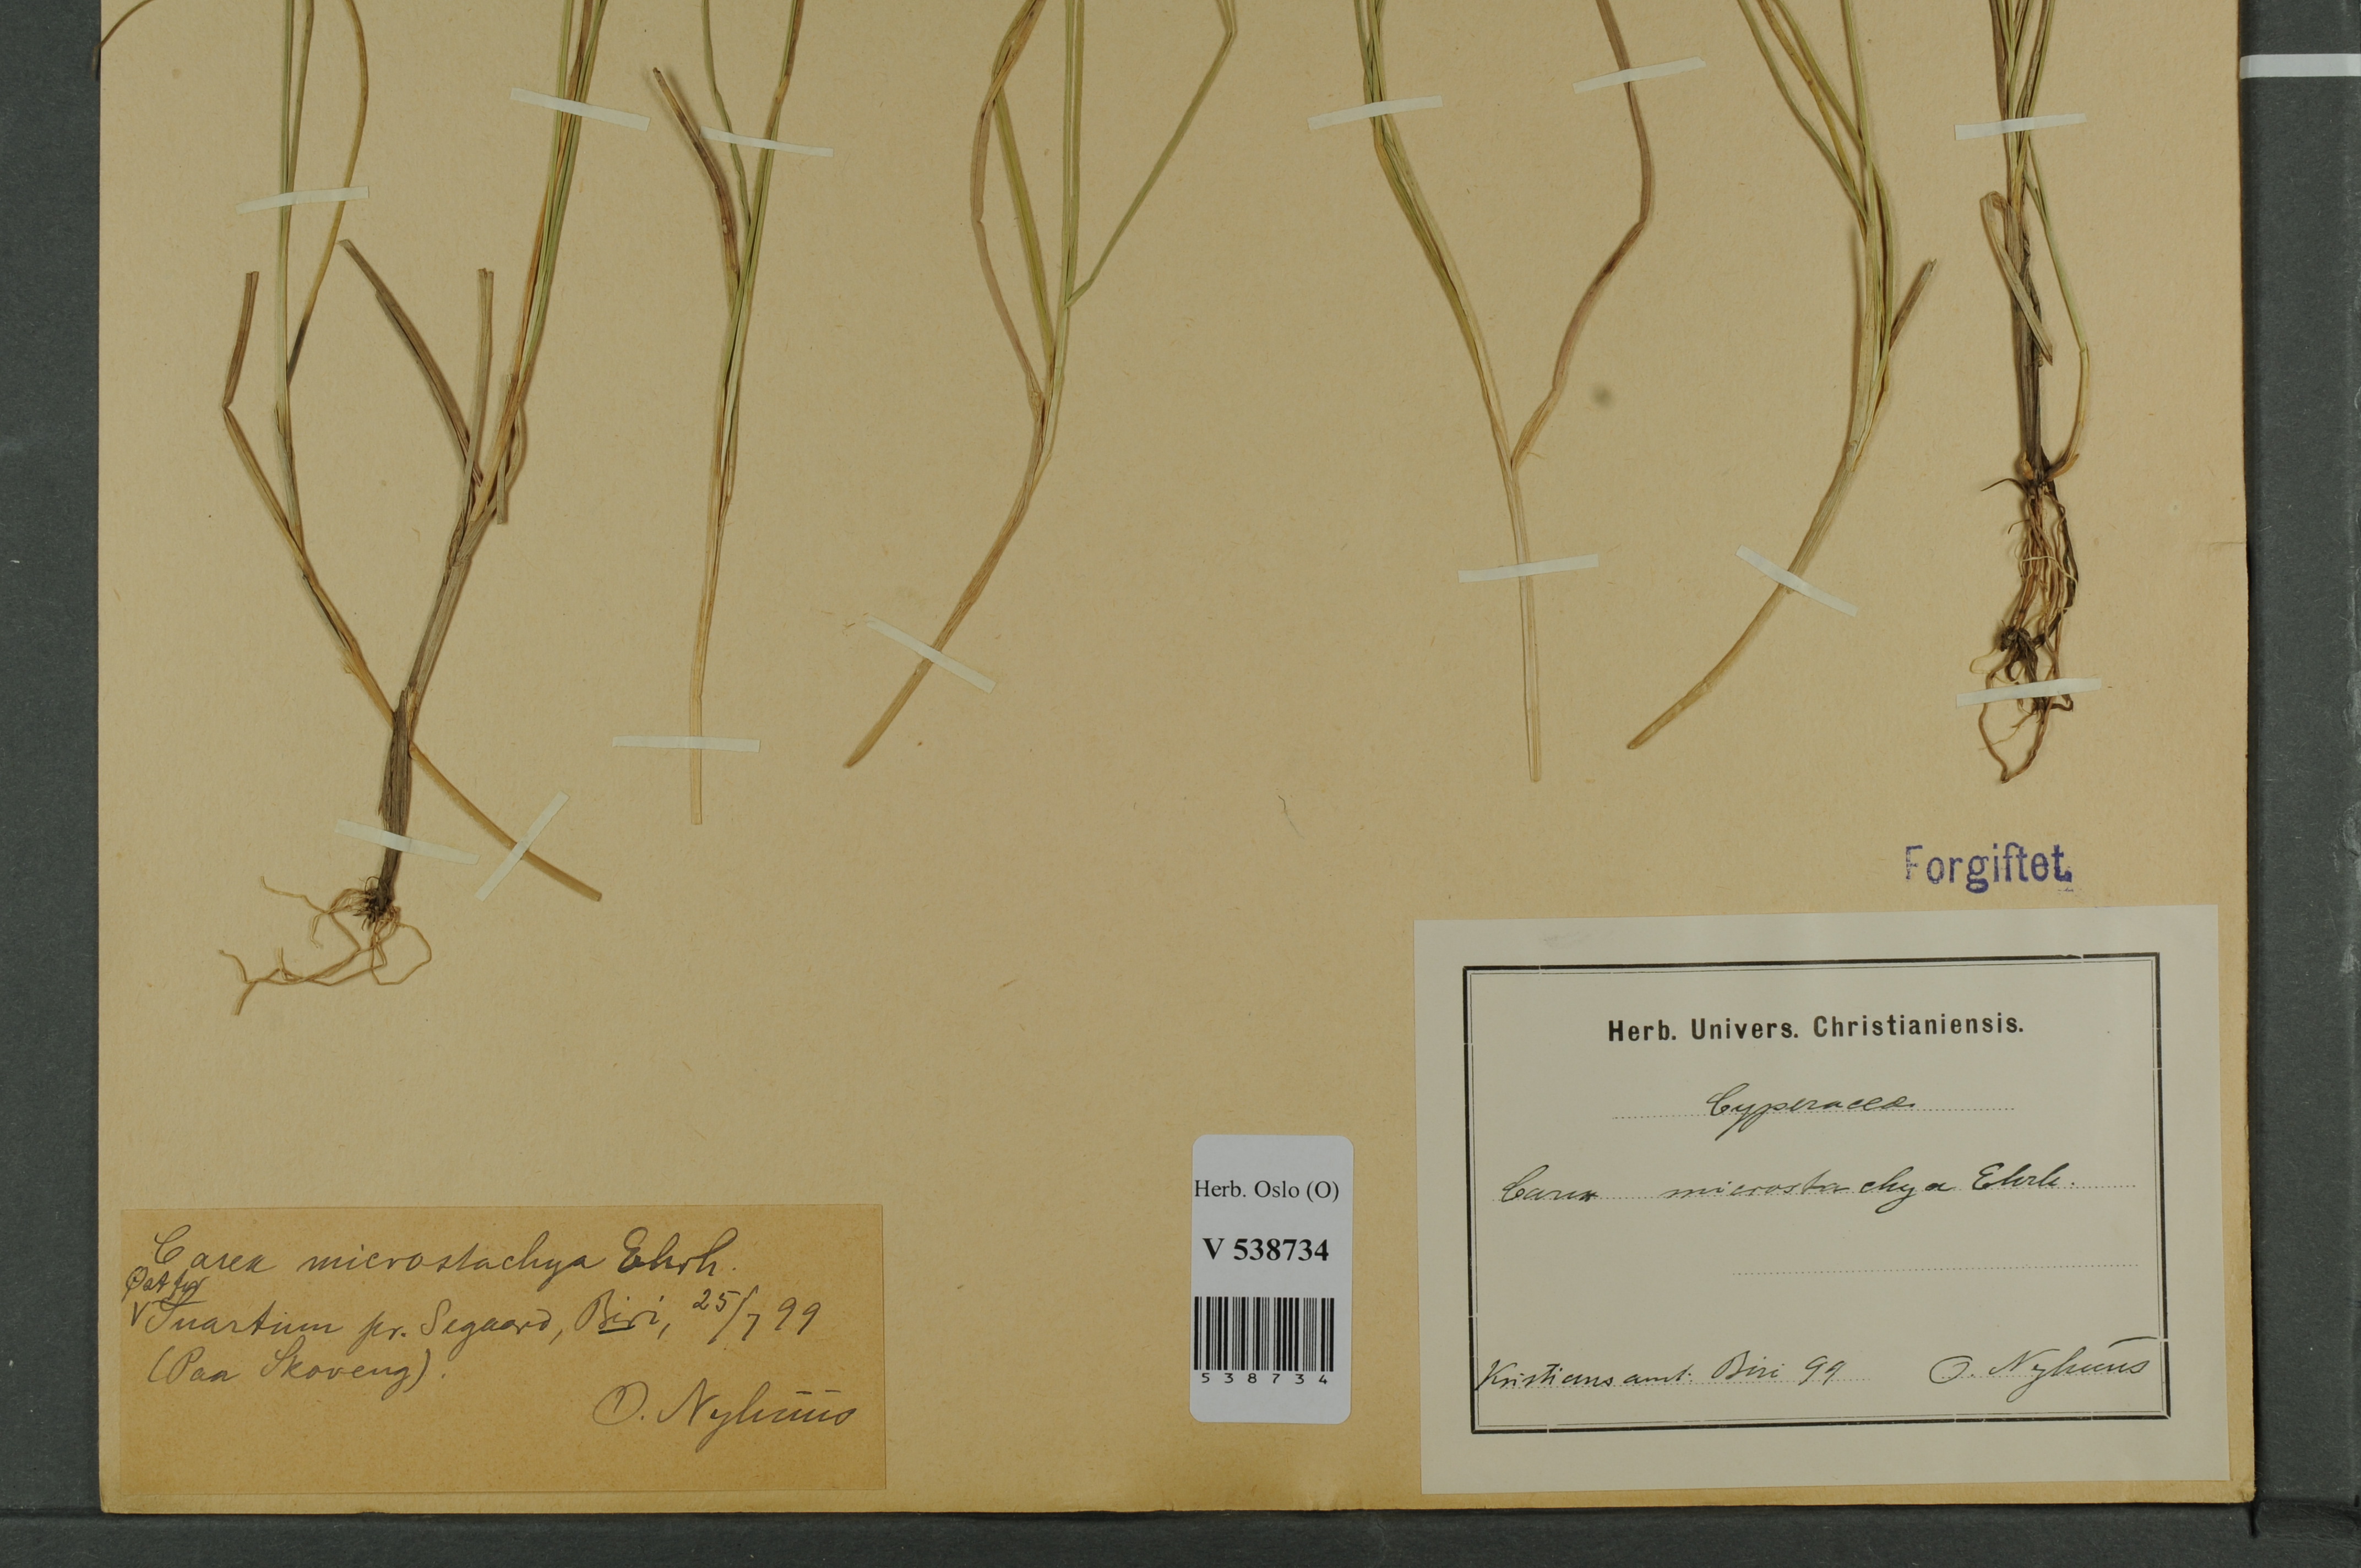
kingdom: Plantae
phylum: Tracheophyta
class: Liliopsida
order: Poales
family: Cyperaceae
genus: Carex
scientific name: Carex
